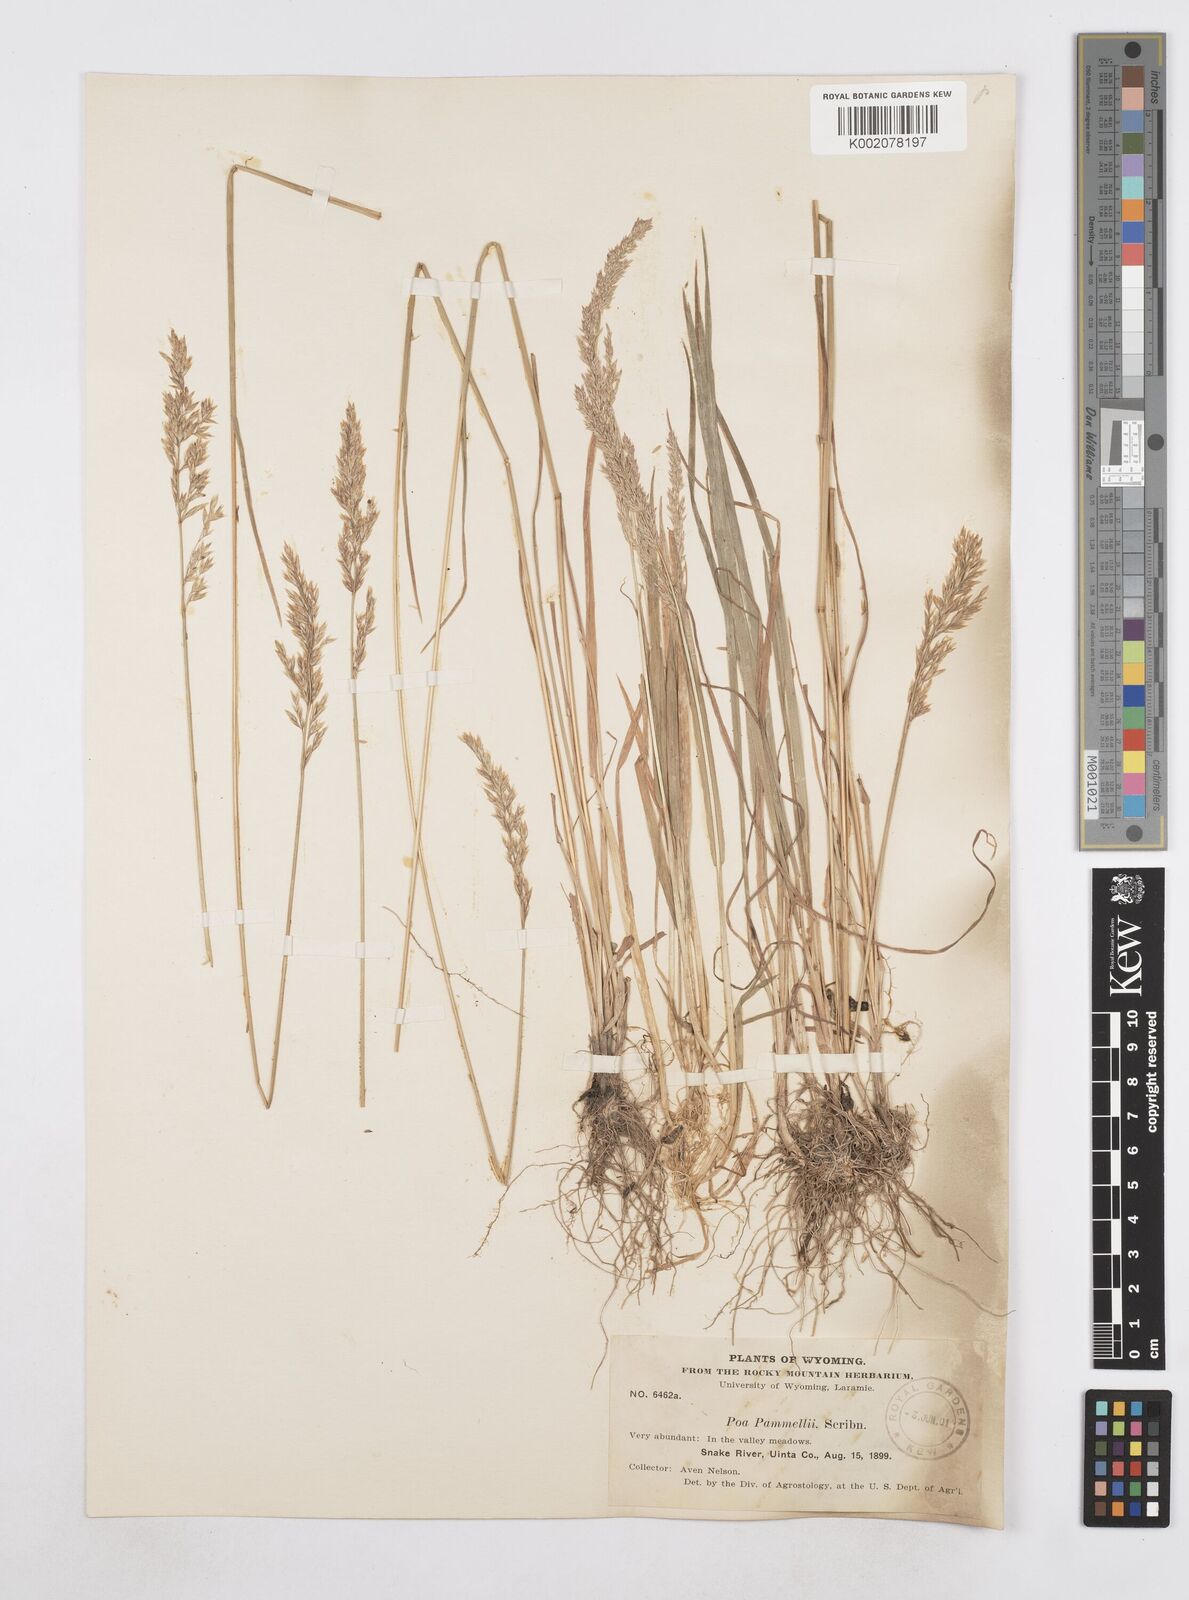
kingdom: Plantae
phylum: Tracheophyta
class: Liliopsida
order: Poales
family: Poaceae
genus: Poa
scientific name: Poa
